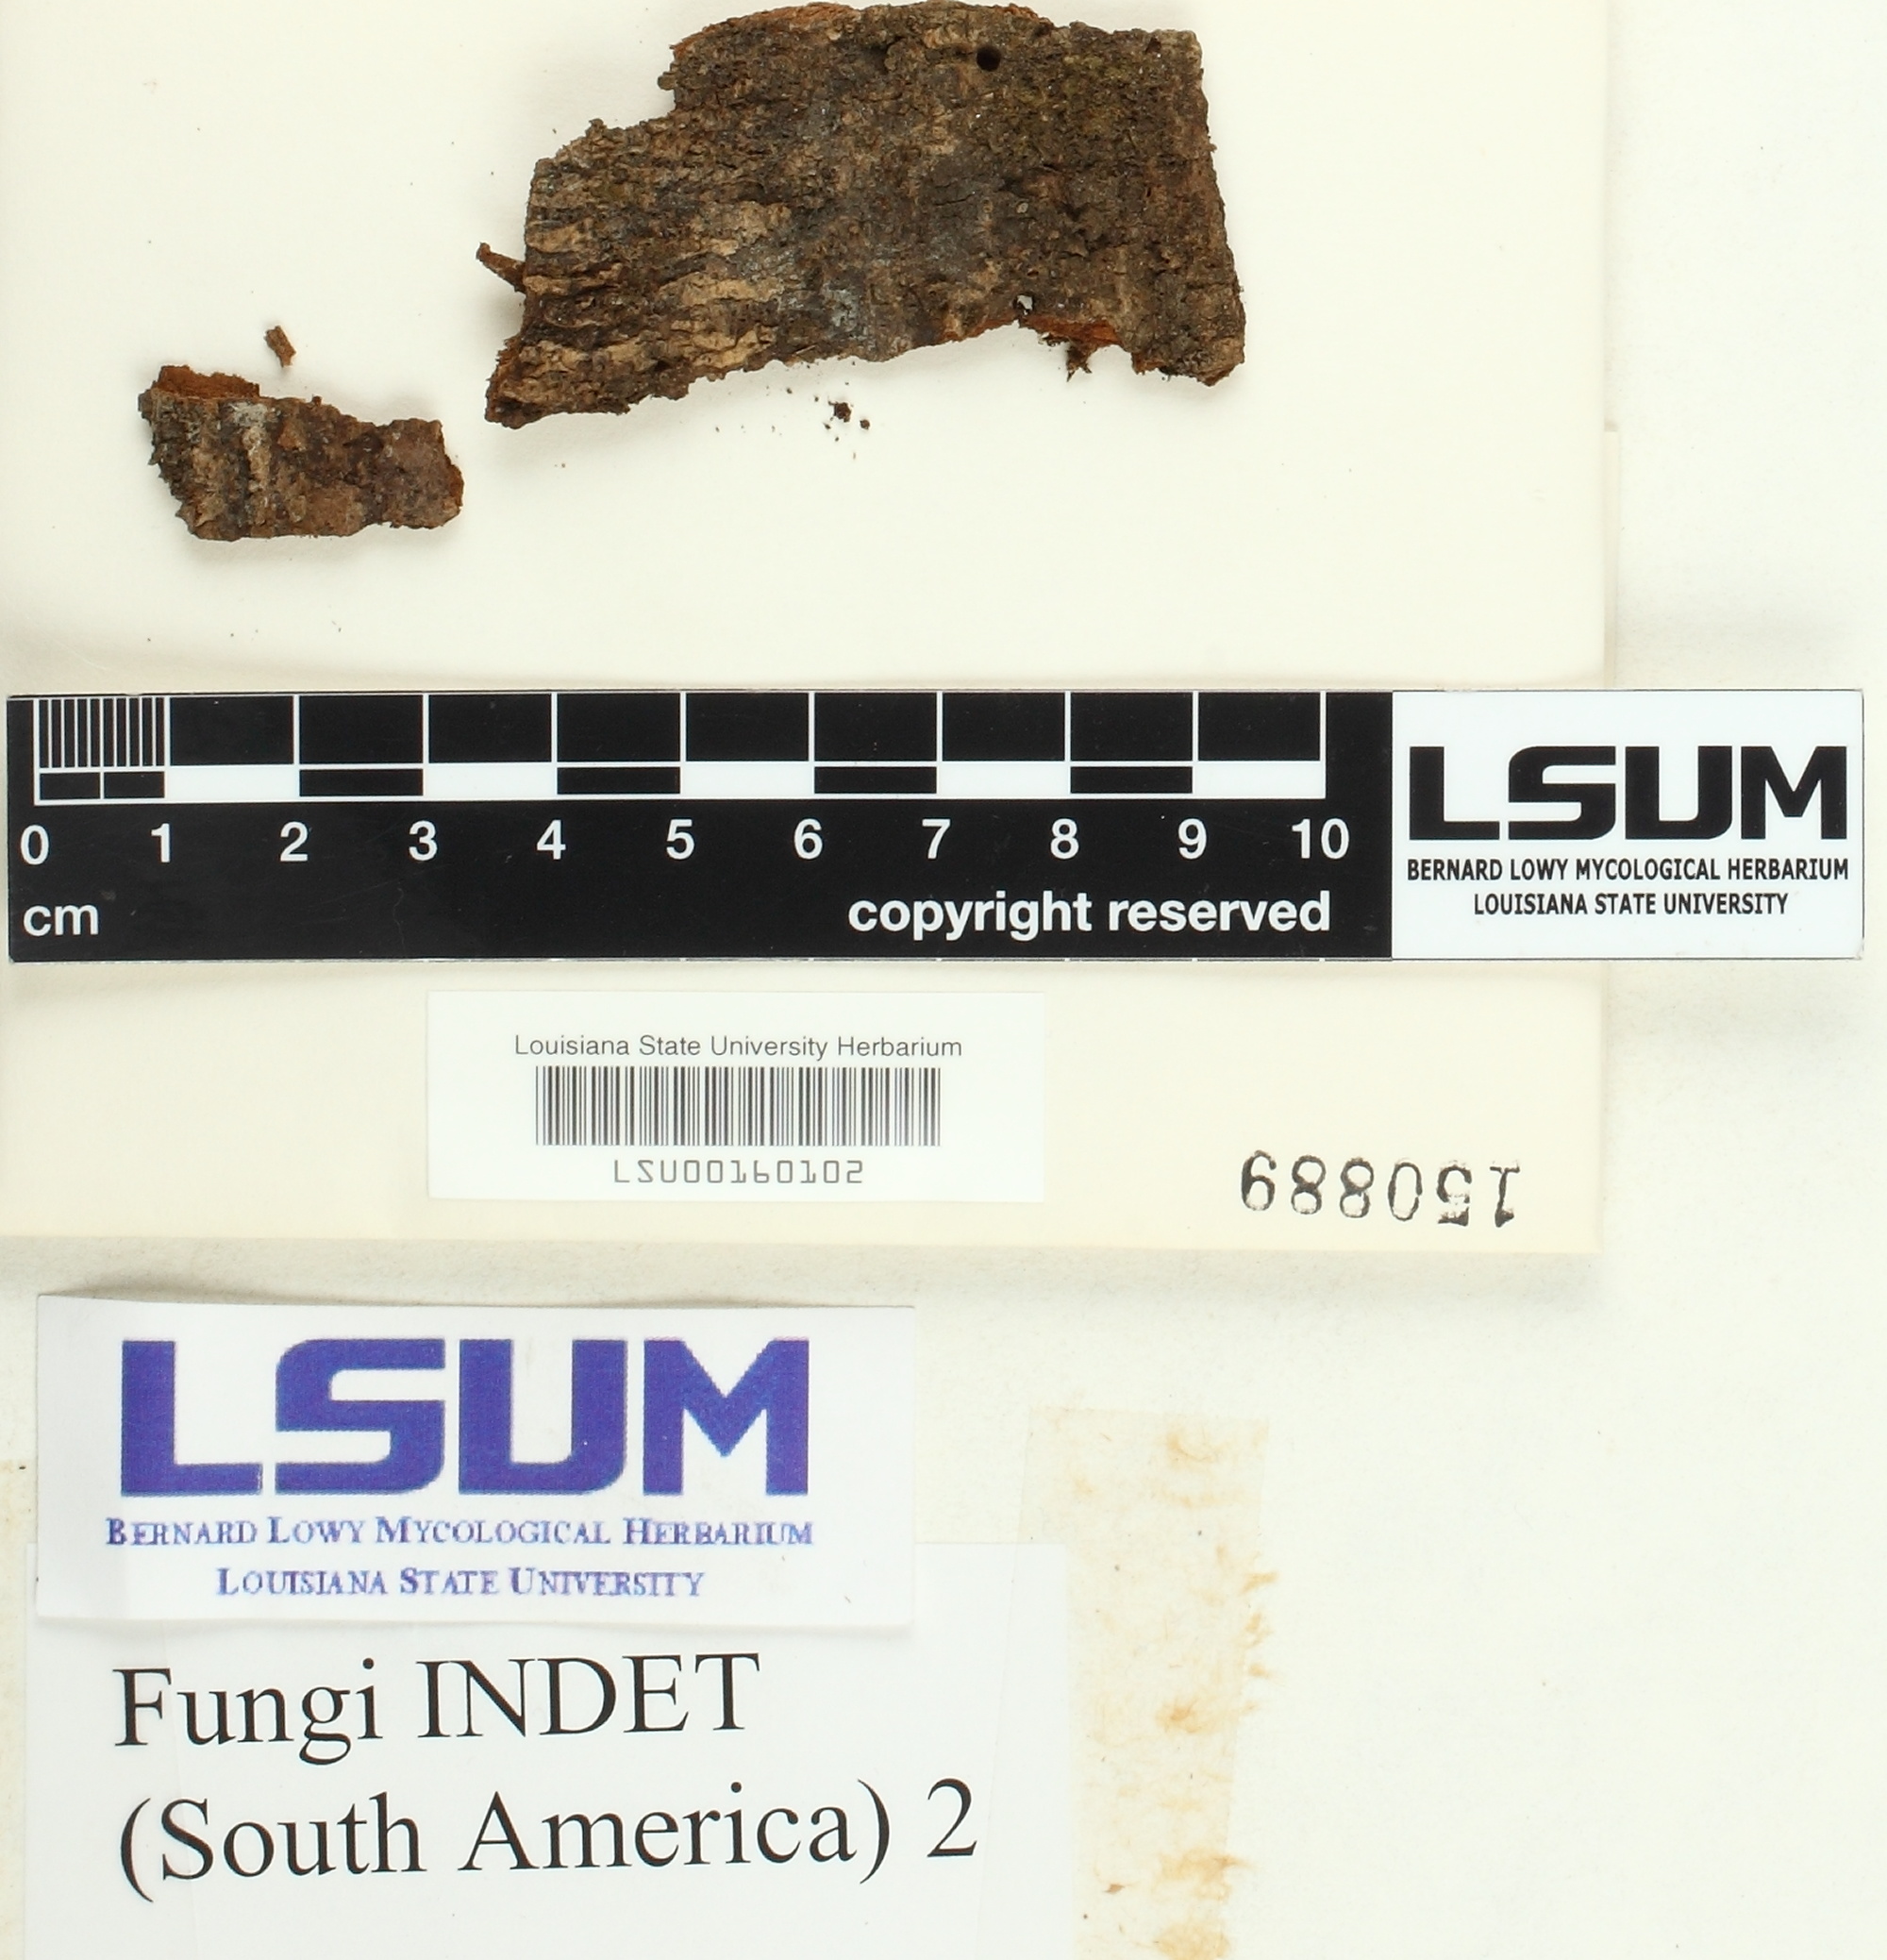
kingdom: Fungi
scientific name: Fungi
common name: Fungi
